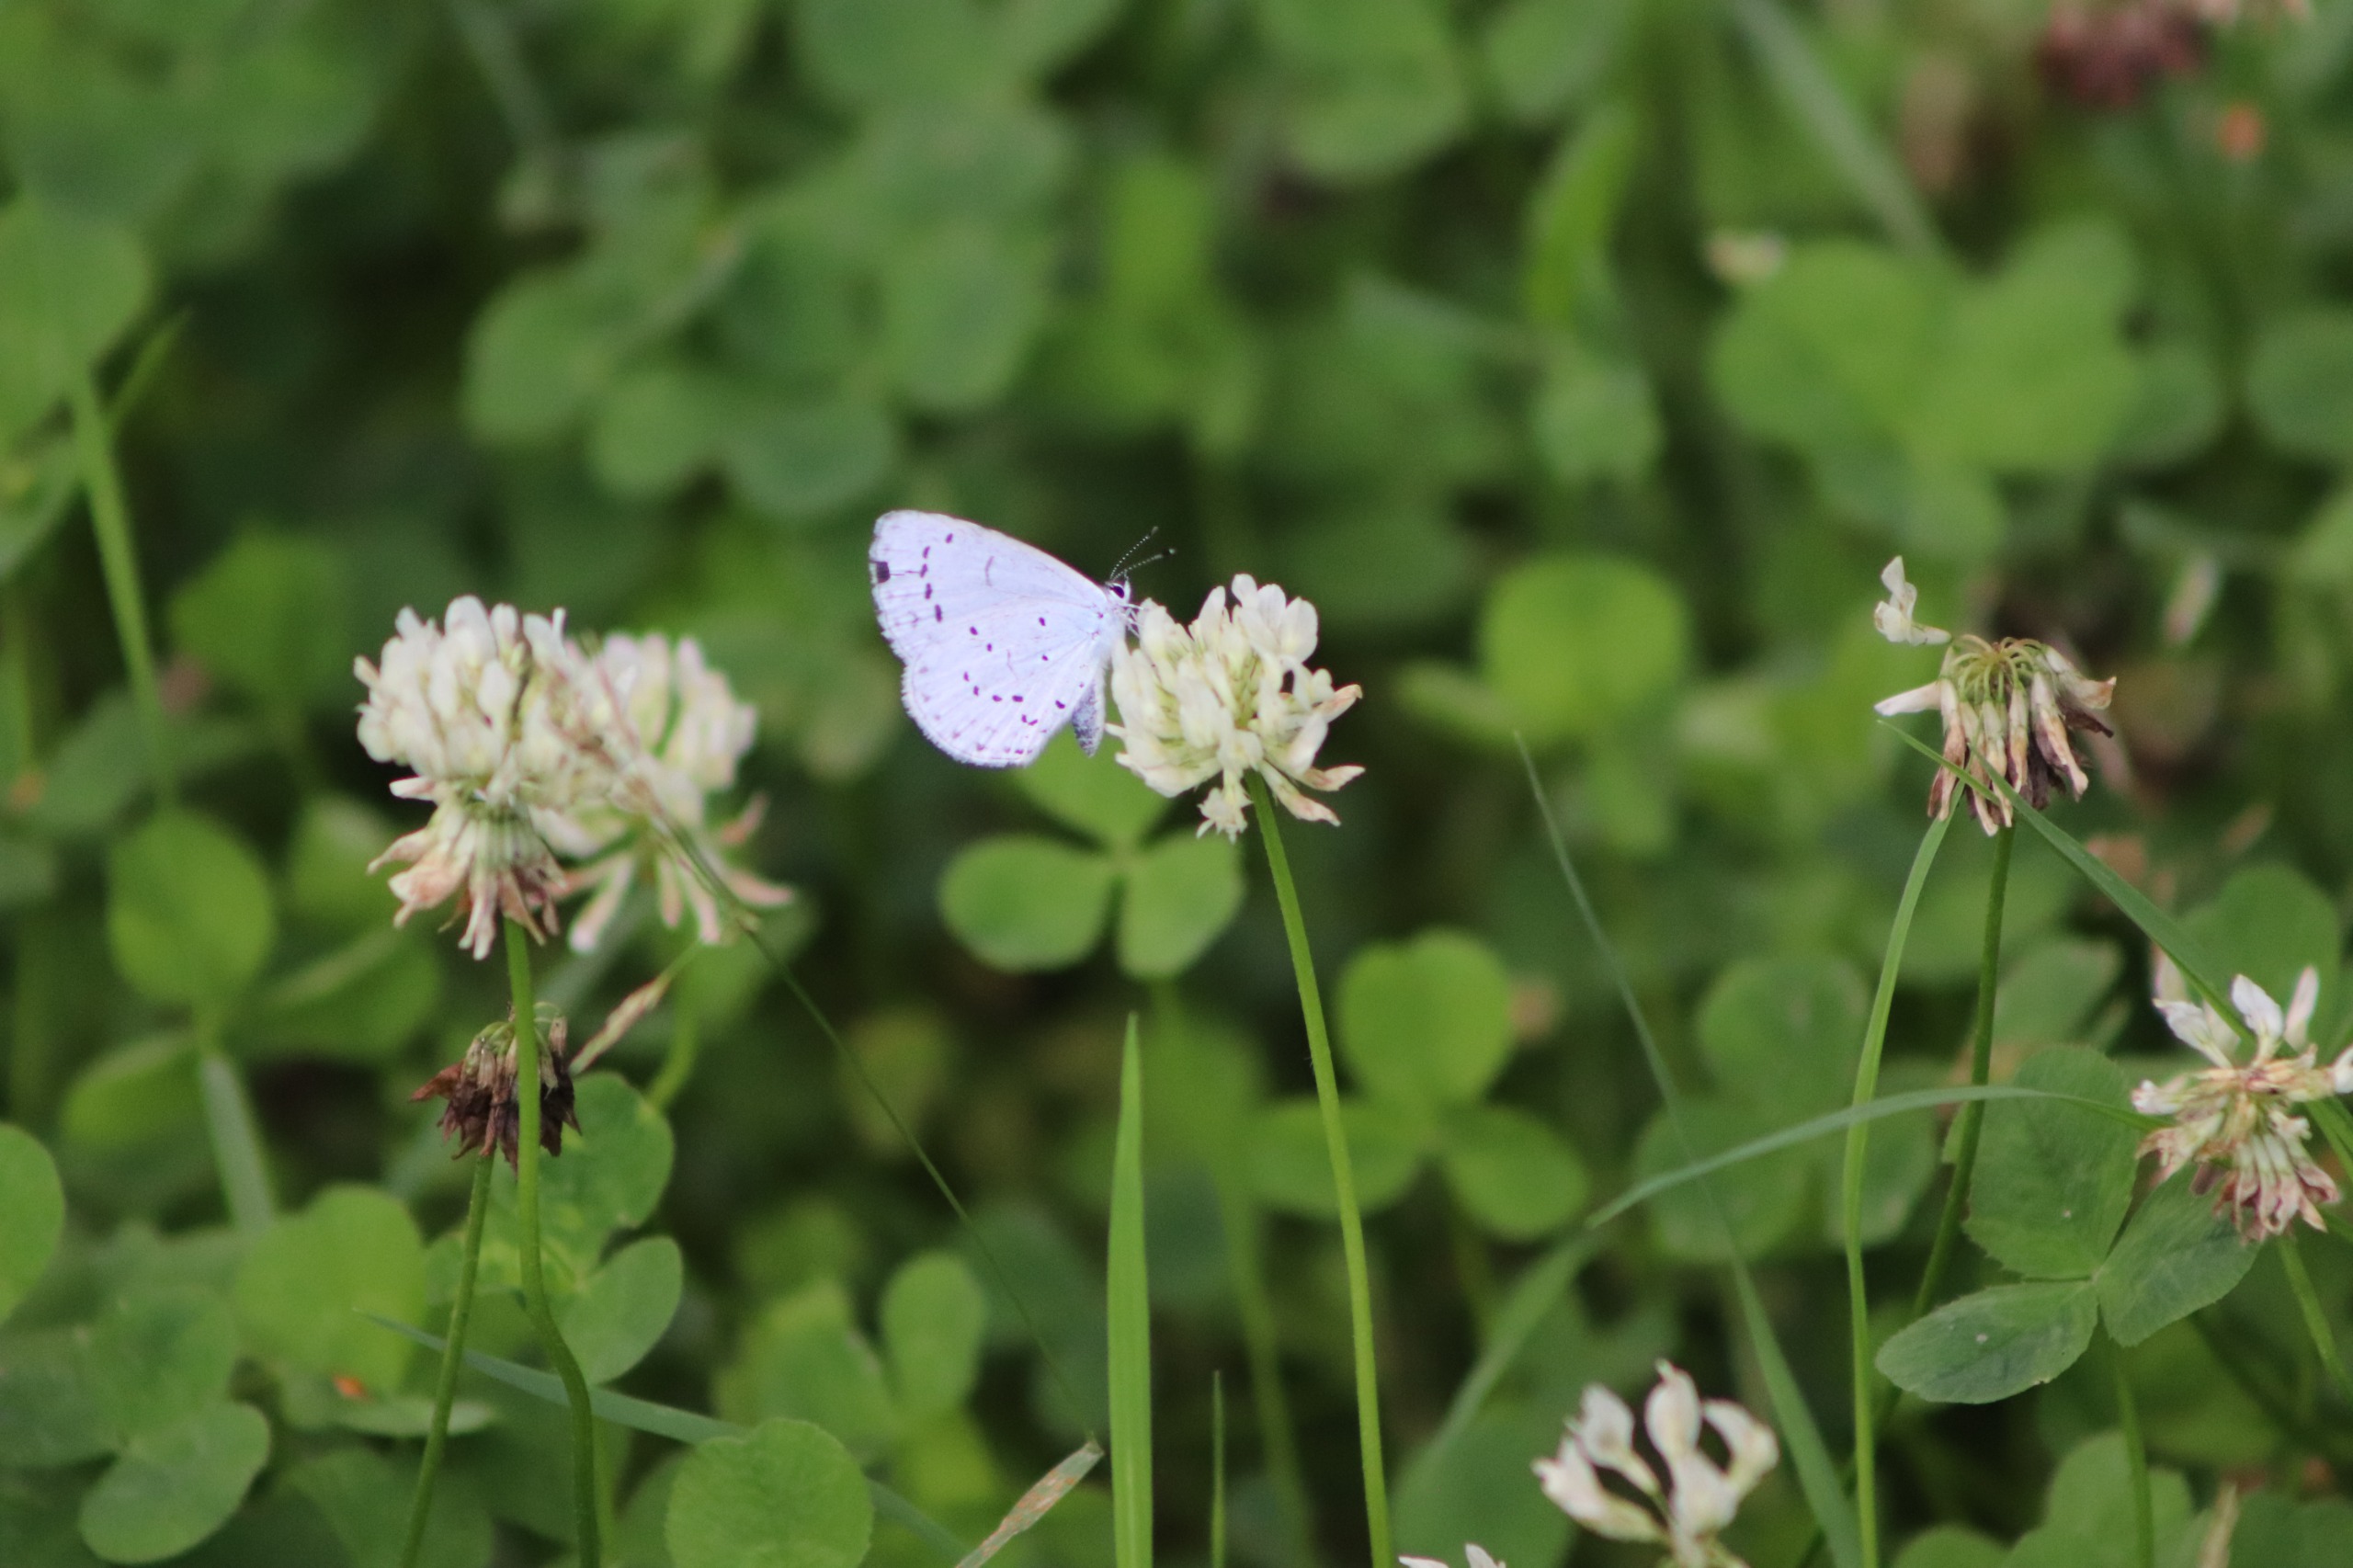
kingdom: Animalia
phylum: Arthropoda
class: Insecta
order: Lepidoptera
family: Lycaenidae
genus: Celastrina
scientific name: Celastrina argiolus
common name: Skovblåfugl
